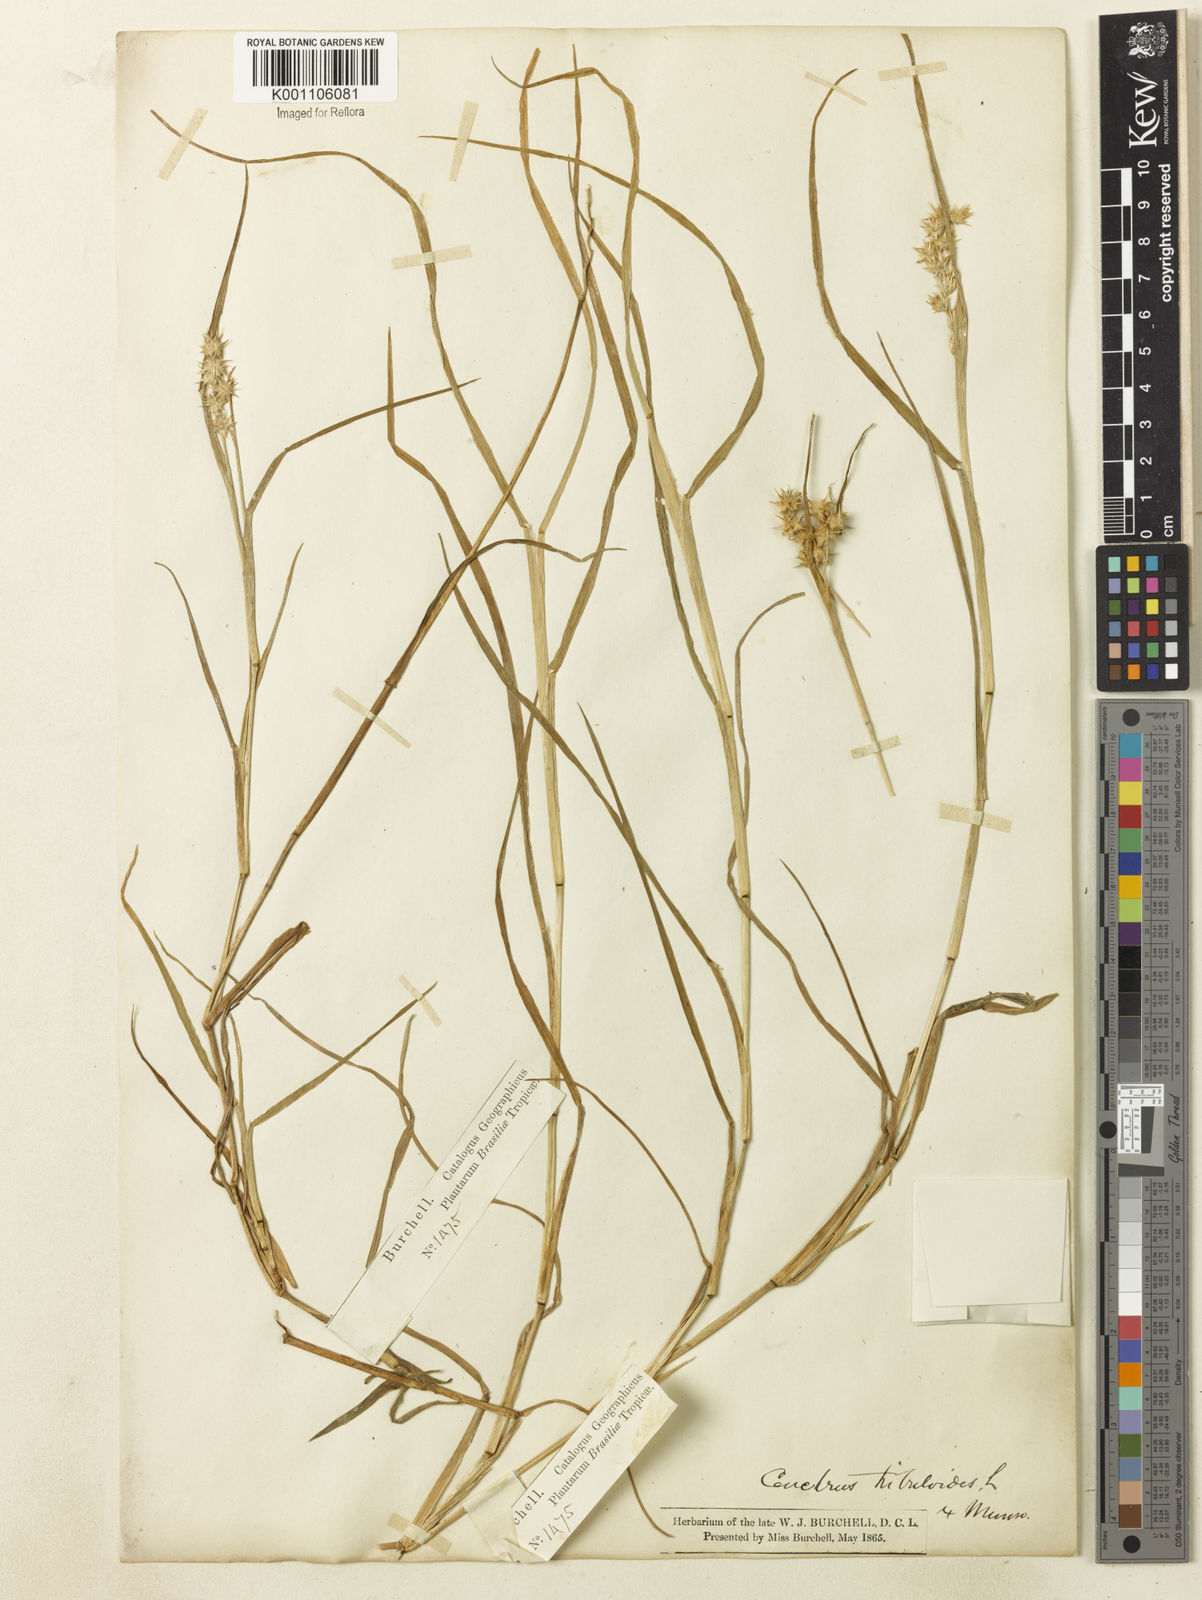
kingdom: Plantae
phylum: Tracheophyta
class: Liliopsida
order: Poales
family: Poaceae
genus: Cenchrus
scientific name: Cenchrus tribuloides
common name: Dune sandbur
